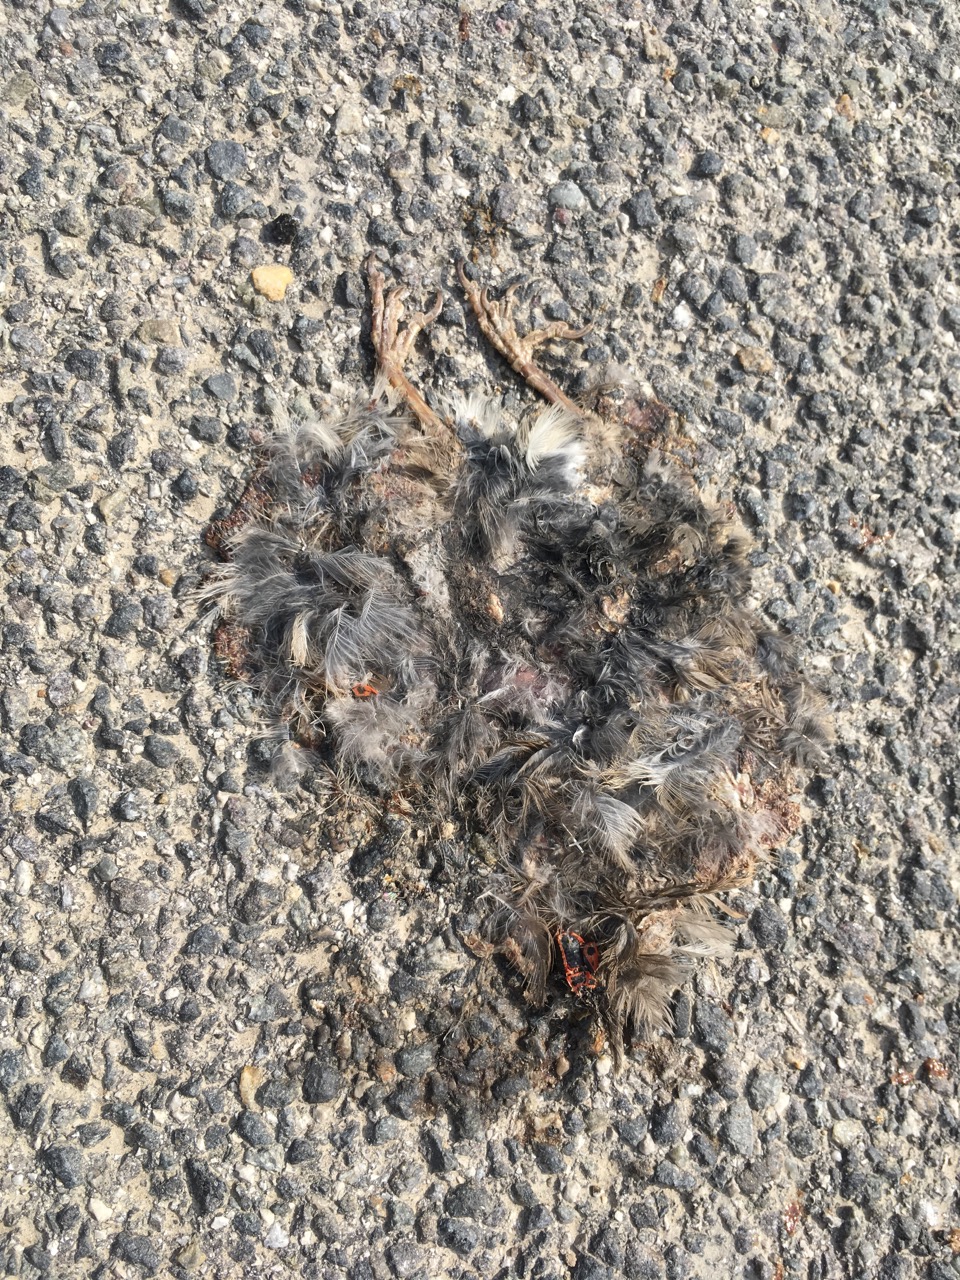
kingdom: Animalia
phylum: Chordata
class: Aves
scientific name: Aves
